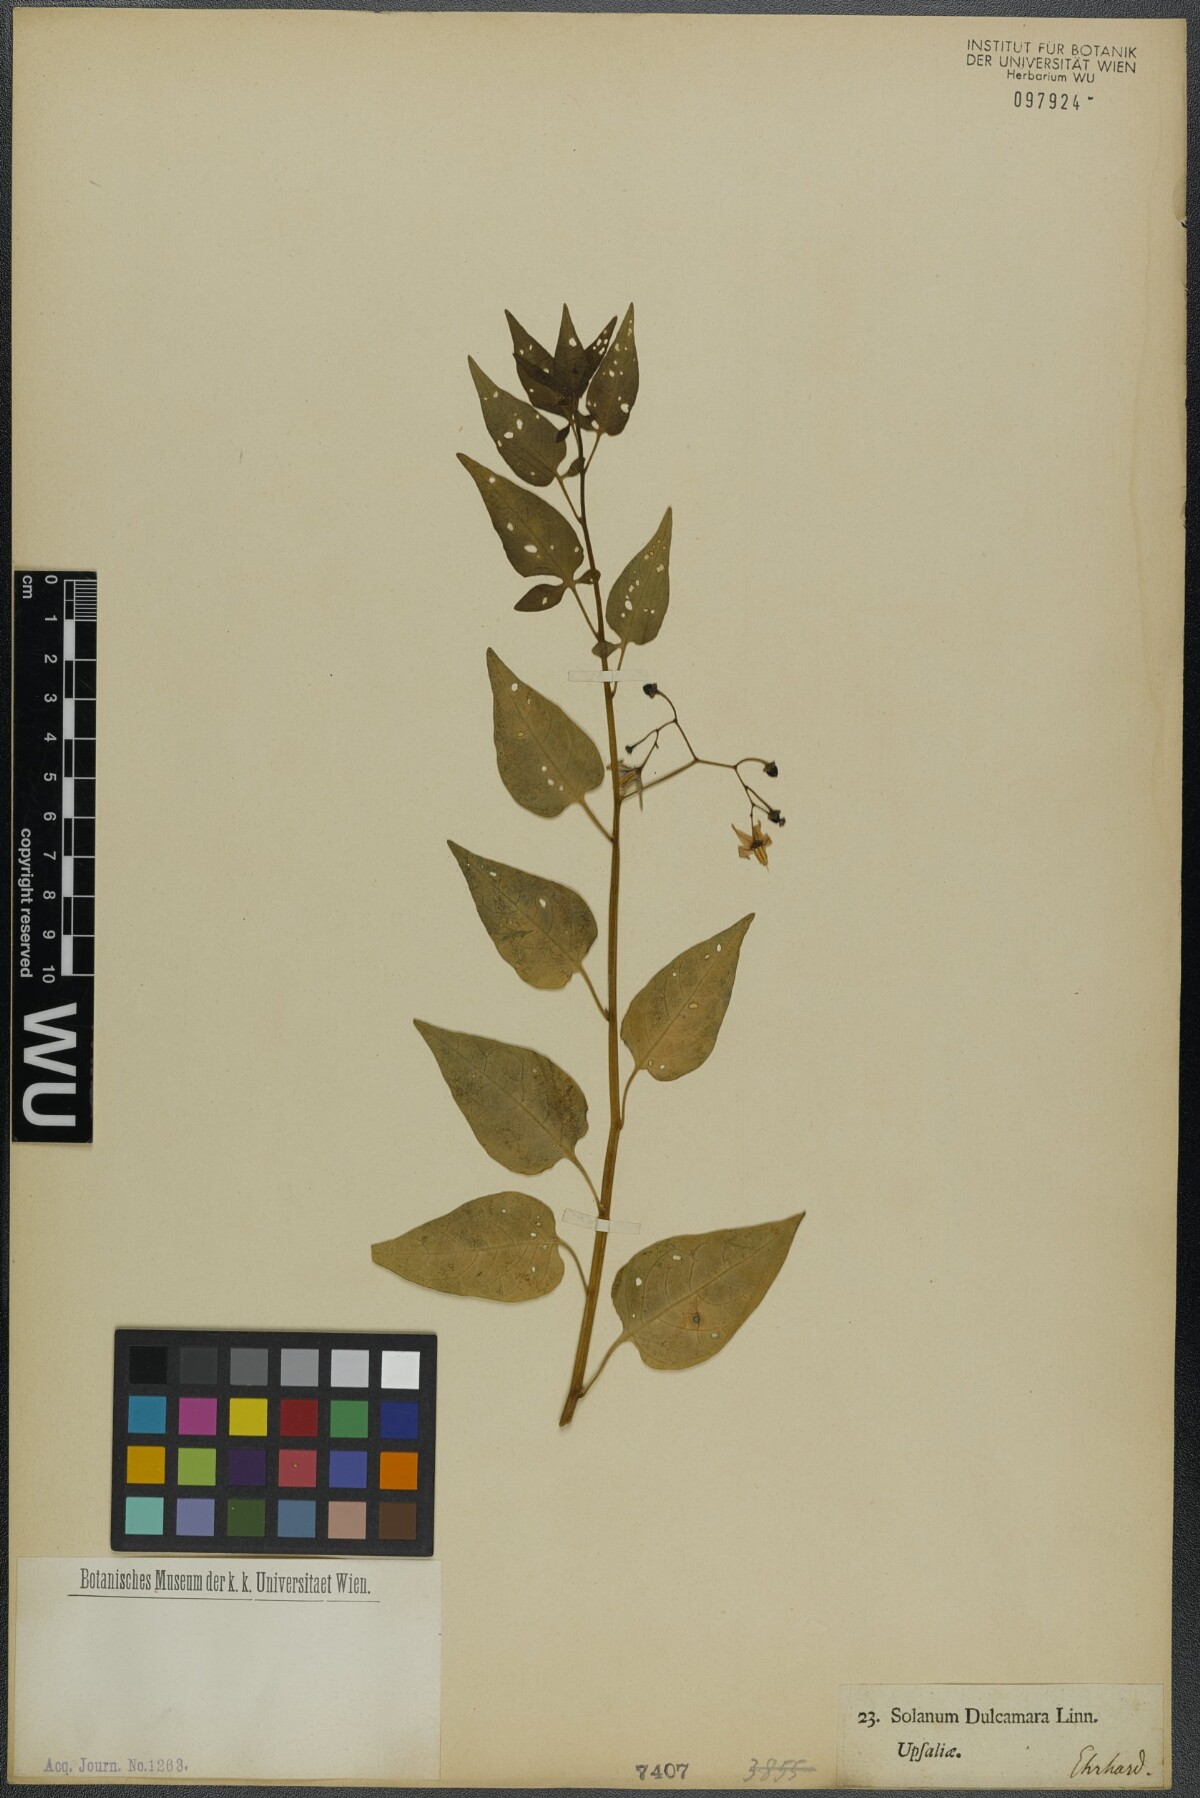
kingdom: Plantae
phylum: Tracheophyta
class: Magnoliopsida
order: Solanales
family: Solanaceae
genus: Solanum
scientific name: Solanum dulcamara
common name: Climbing nightshade
